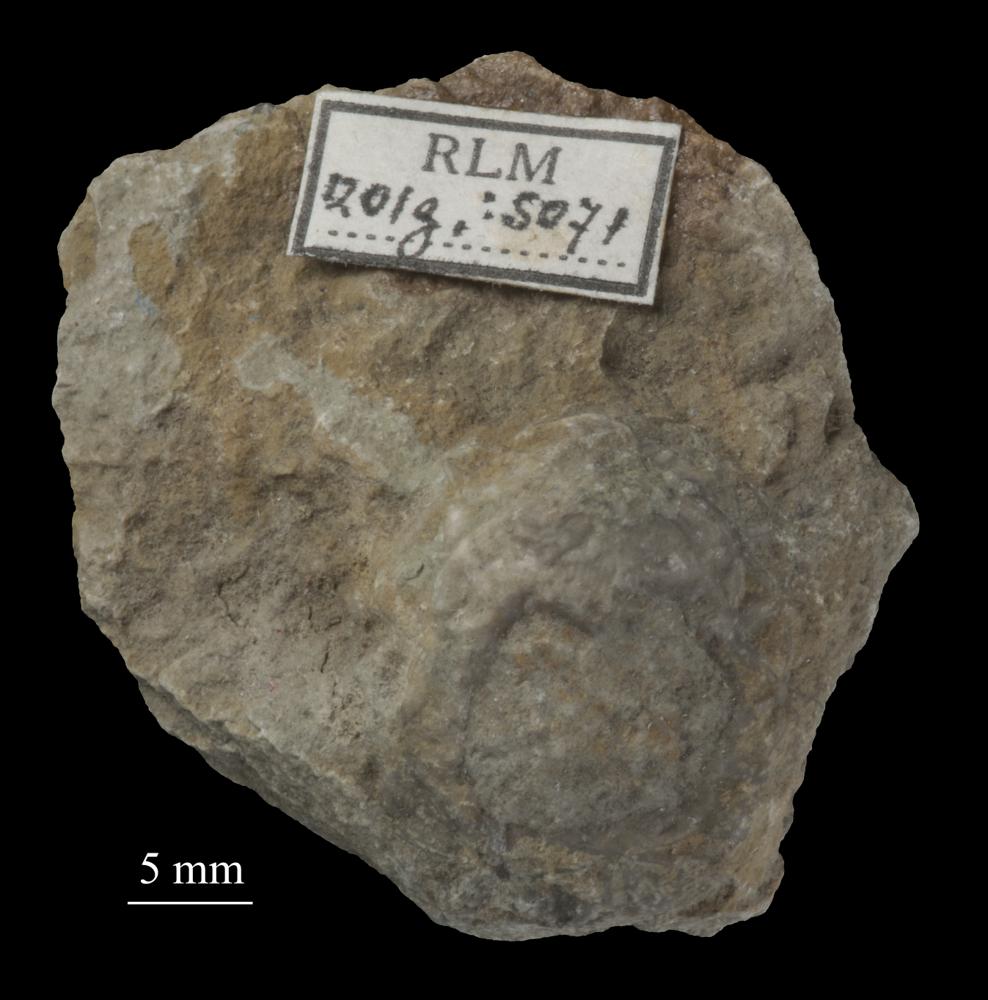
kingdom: Animalia
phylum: Echinodermata
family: Caryocystitidae
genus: Heliocrinites
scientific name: Heliocrinites Echinosphaerites balticus
